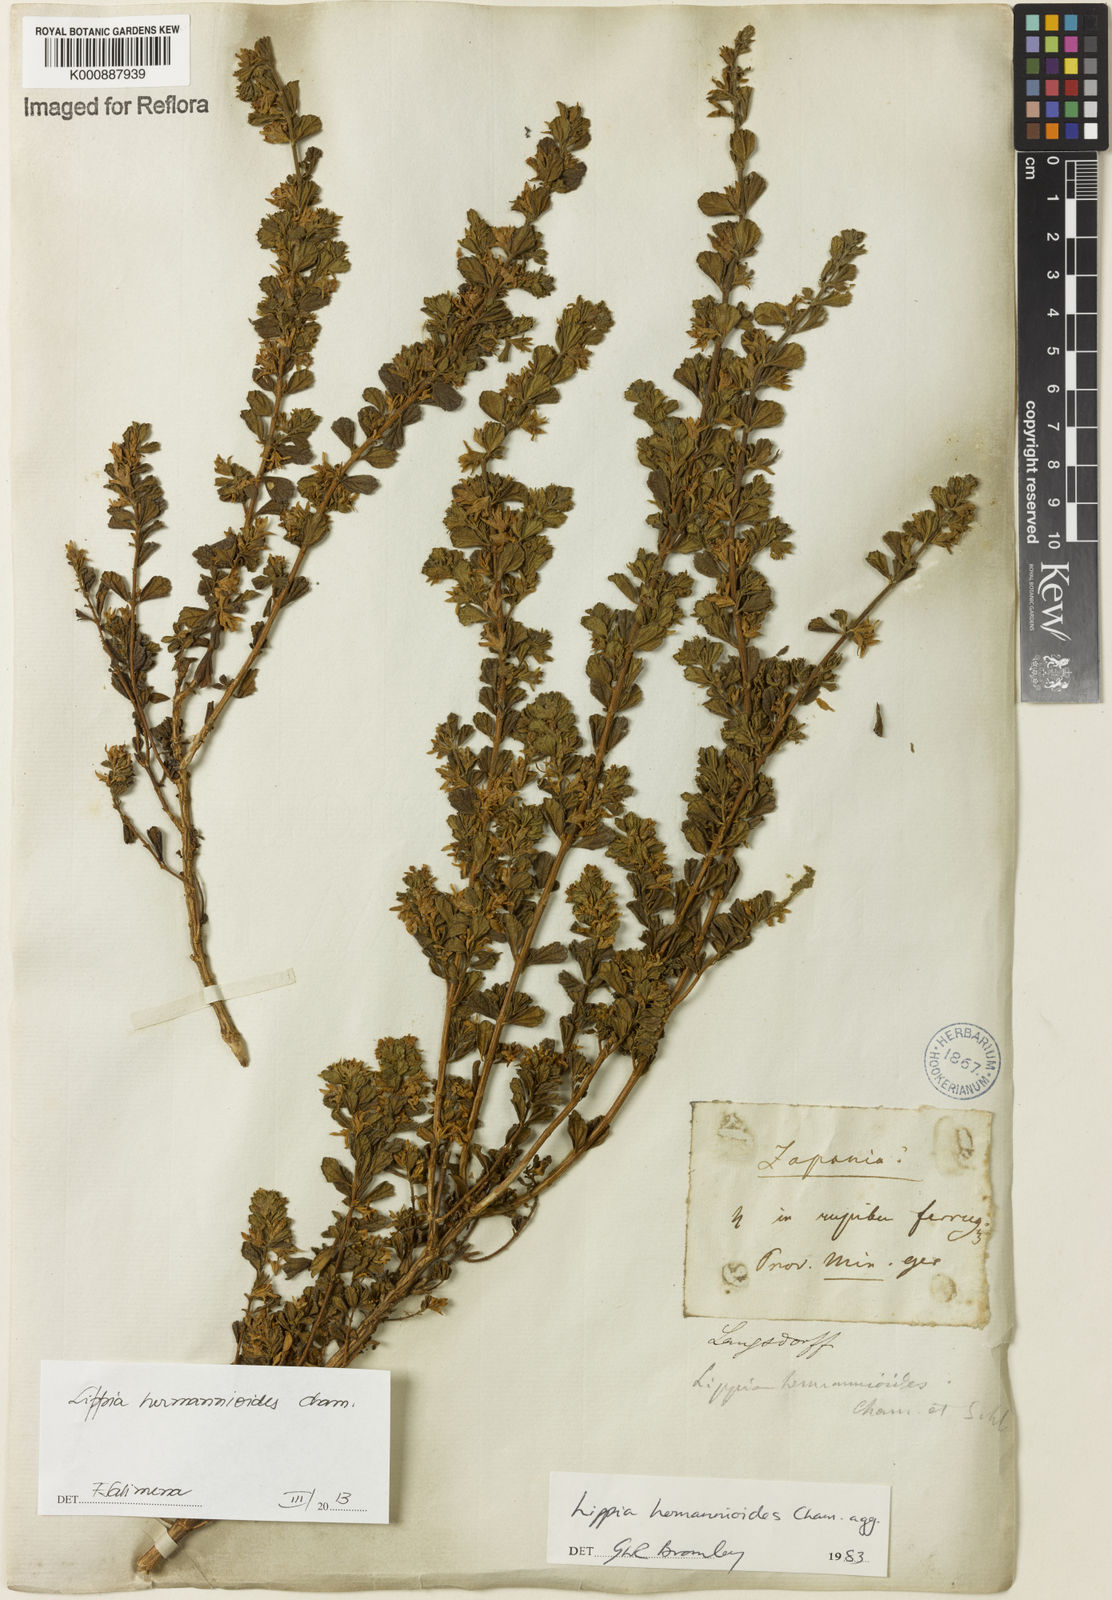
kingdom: Plantae
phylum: Tracheophyta
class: Magnoliopsida
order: Lamiales
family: Verbenaceae
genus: Lippia
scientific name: Lippia hermannioides
